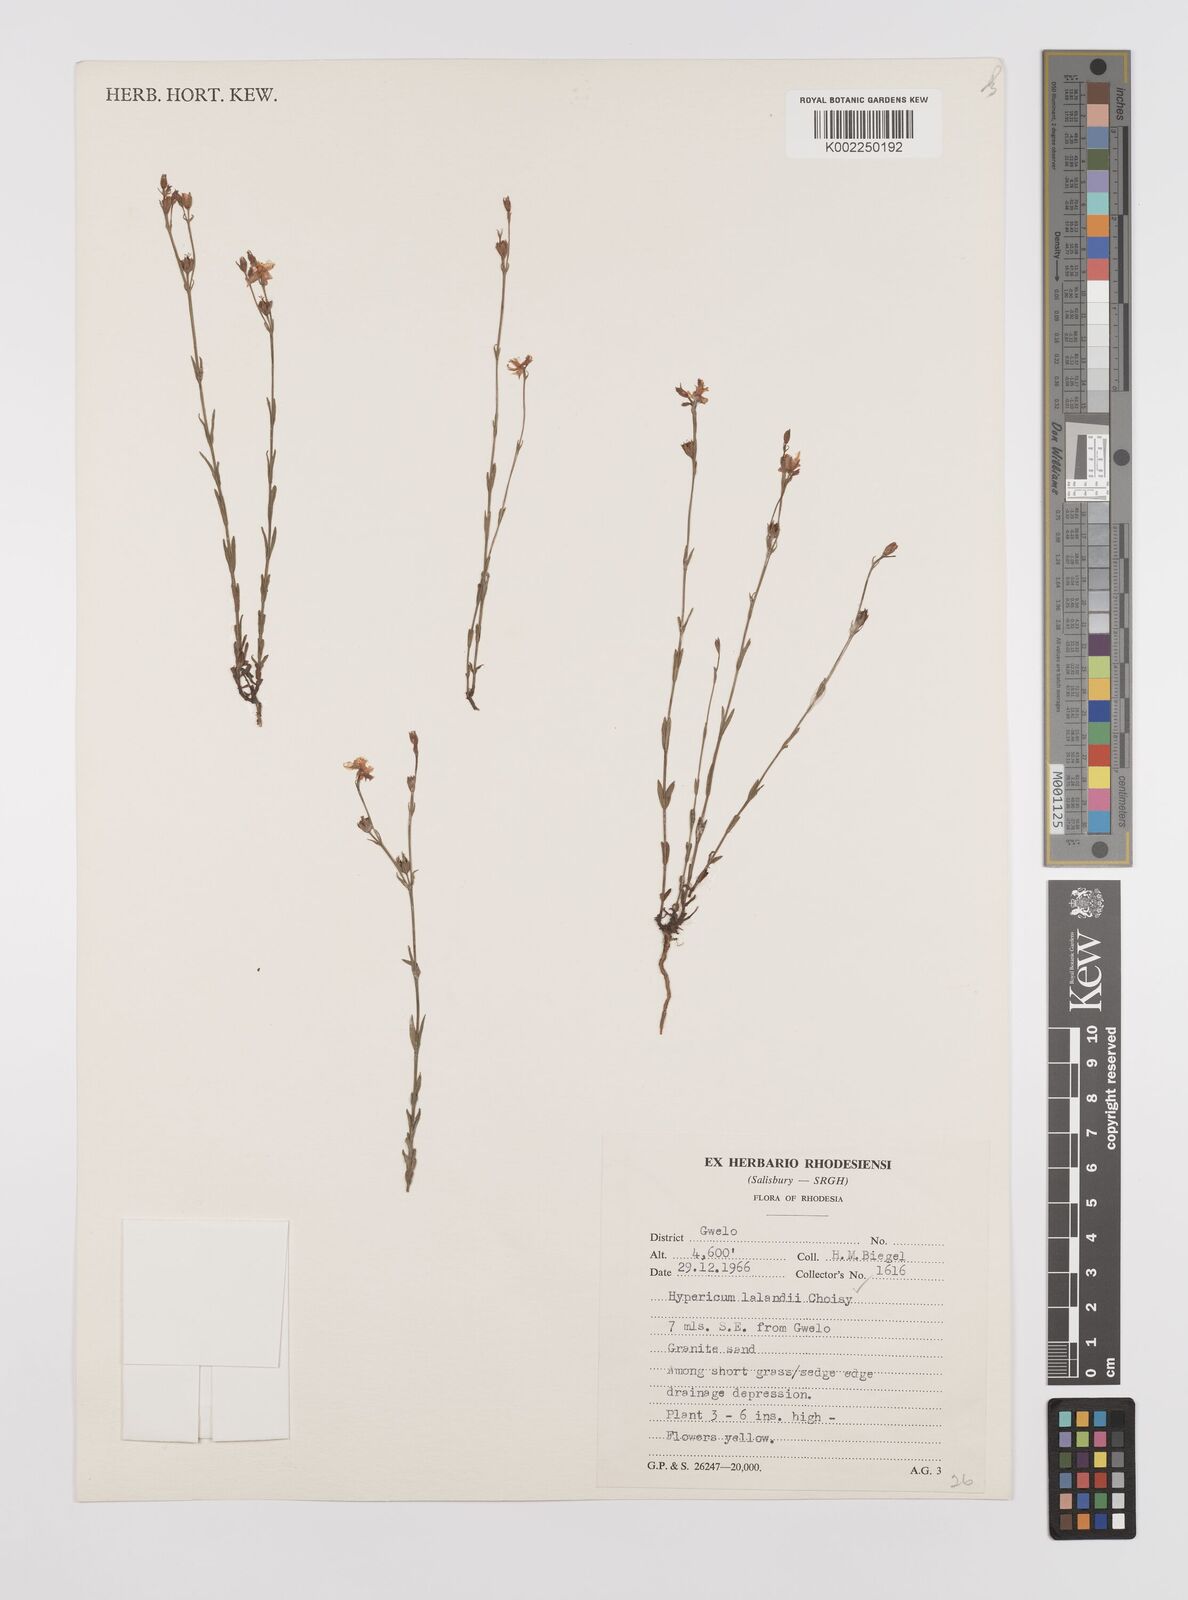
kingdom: Plantae
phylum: Tracheophyta
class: Magnoliopsida
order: Malpighiales
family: Hypericaceae
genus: Hypericum
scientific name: Hypericum lalandii
